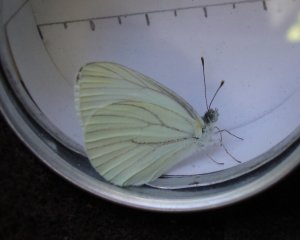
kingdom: Animalia
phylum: Arthropoda
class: Insecta
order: Lepidoptera
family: Pieridae
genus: Pieris
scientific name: Pieris oleracea
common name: Mustard White
